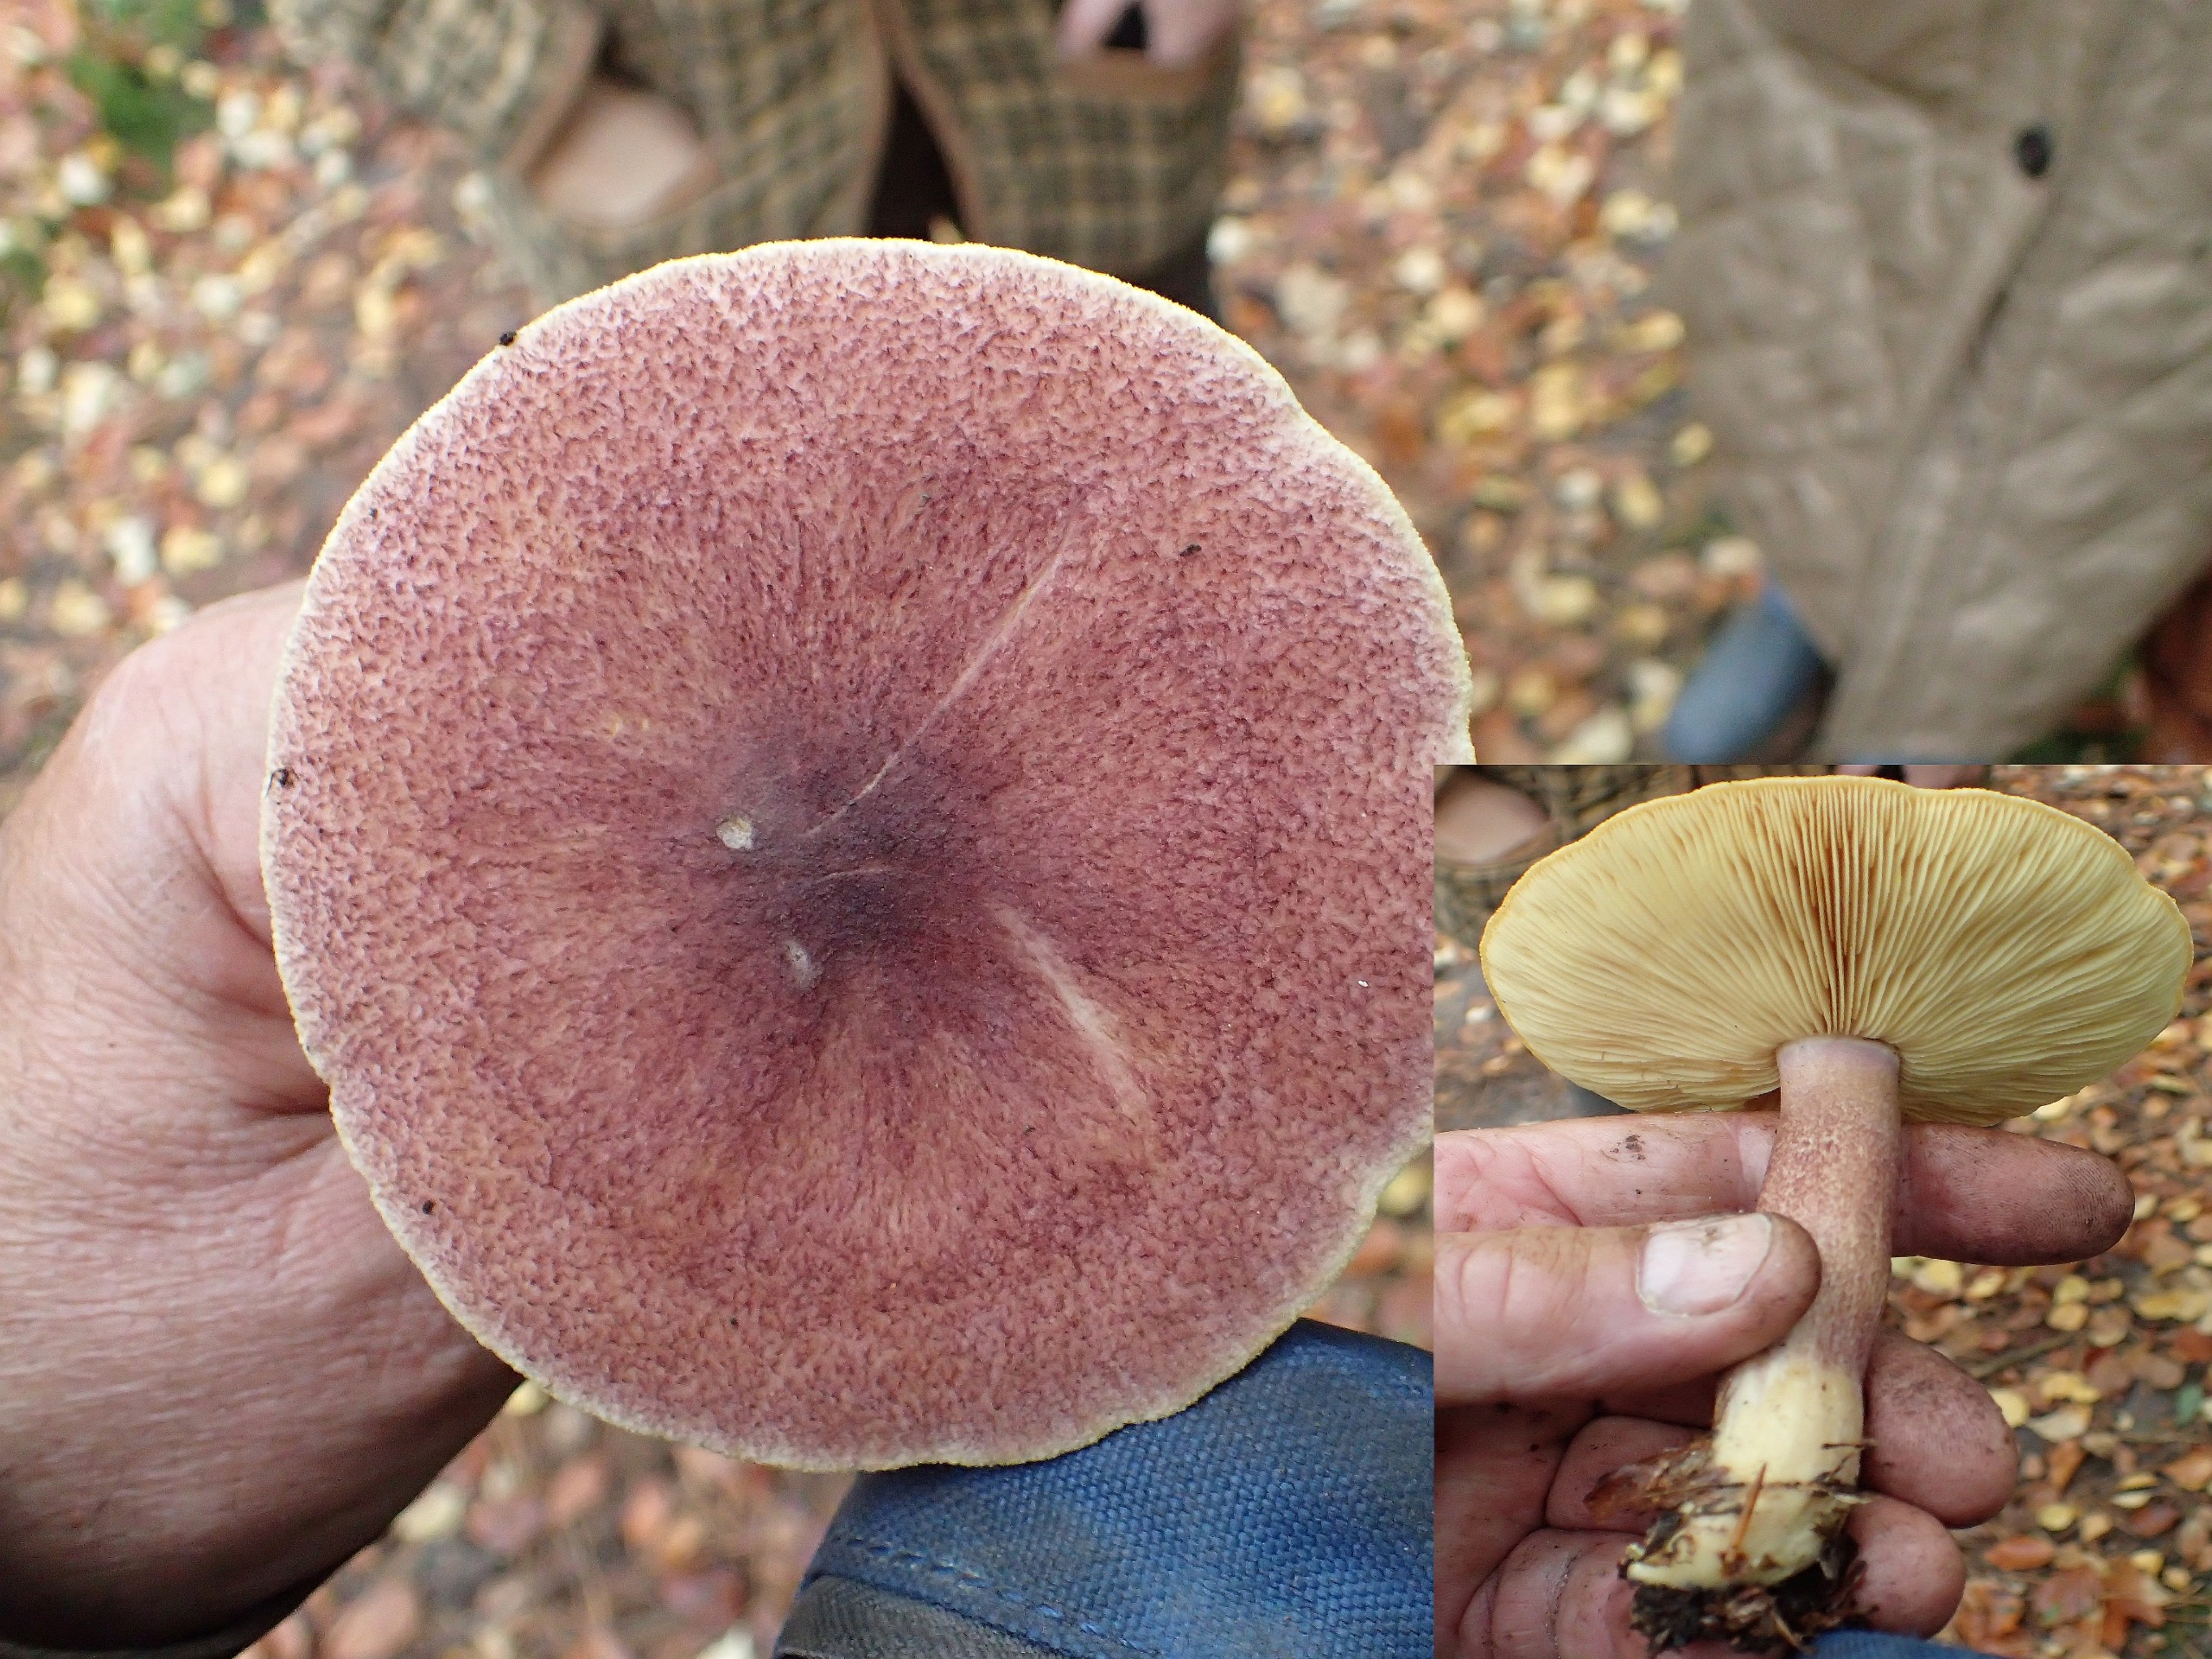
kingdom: Fungi
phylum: Basidiomycota
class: Agaricomycetes
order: Agaricales
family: Tricholomataceae
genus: Tricholomopsis
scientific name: Tricholomopsis rutilans
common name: Purpur-væbnerhat
